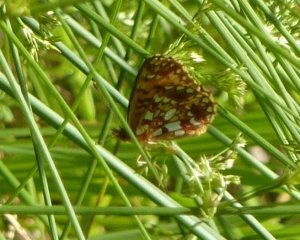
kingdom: Animalia
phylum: Arthropoda
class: Insecta
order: Lepidoptera
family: Nymphalidae
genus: Boloria
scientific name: Boloria selene
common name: Silver-bordered Fritillary
